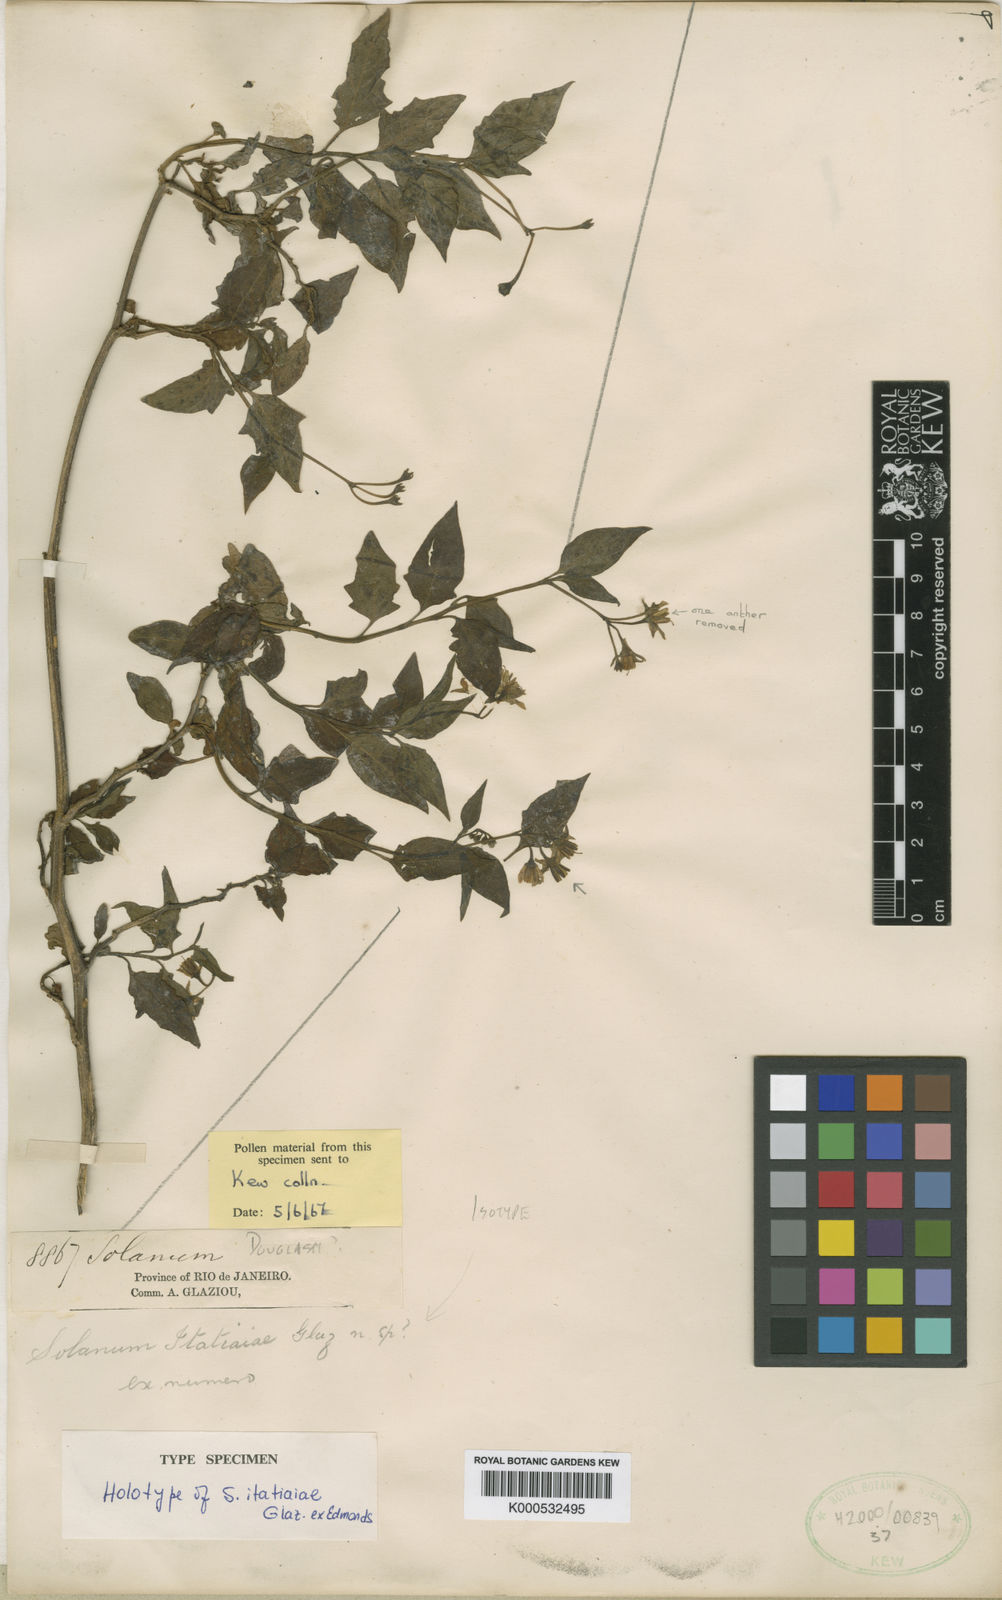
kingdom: Plantae
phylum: Tracheophyta
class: Magnoliopsida
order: Solanales
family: Solanaceae
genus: Solanum
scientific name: Solanum enantiophyllanthum
